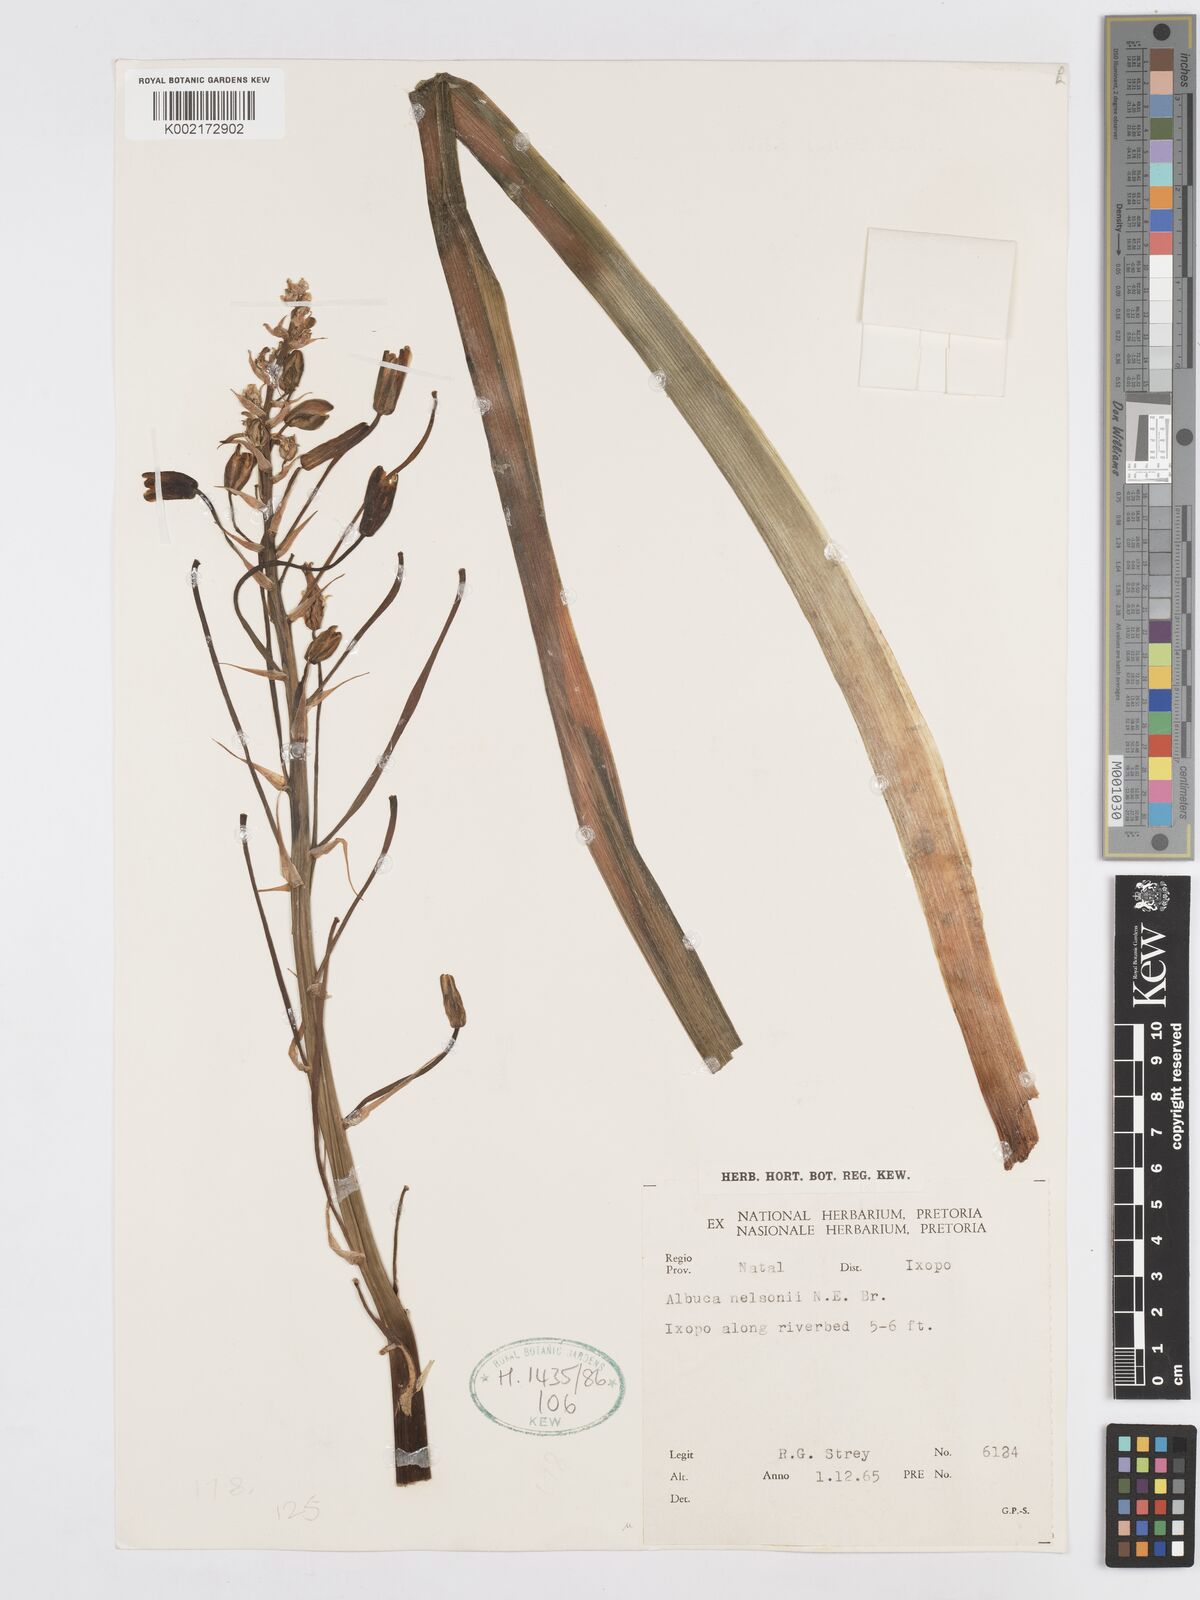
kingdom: Plantae
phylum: Tracheophyta
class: Liliopsida
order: Asparagales
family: Asparagaceae
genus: Albuca
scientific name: Albuca nelsonii
